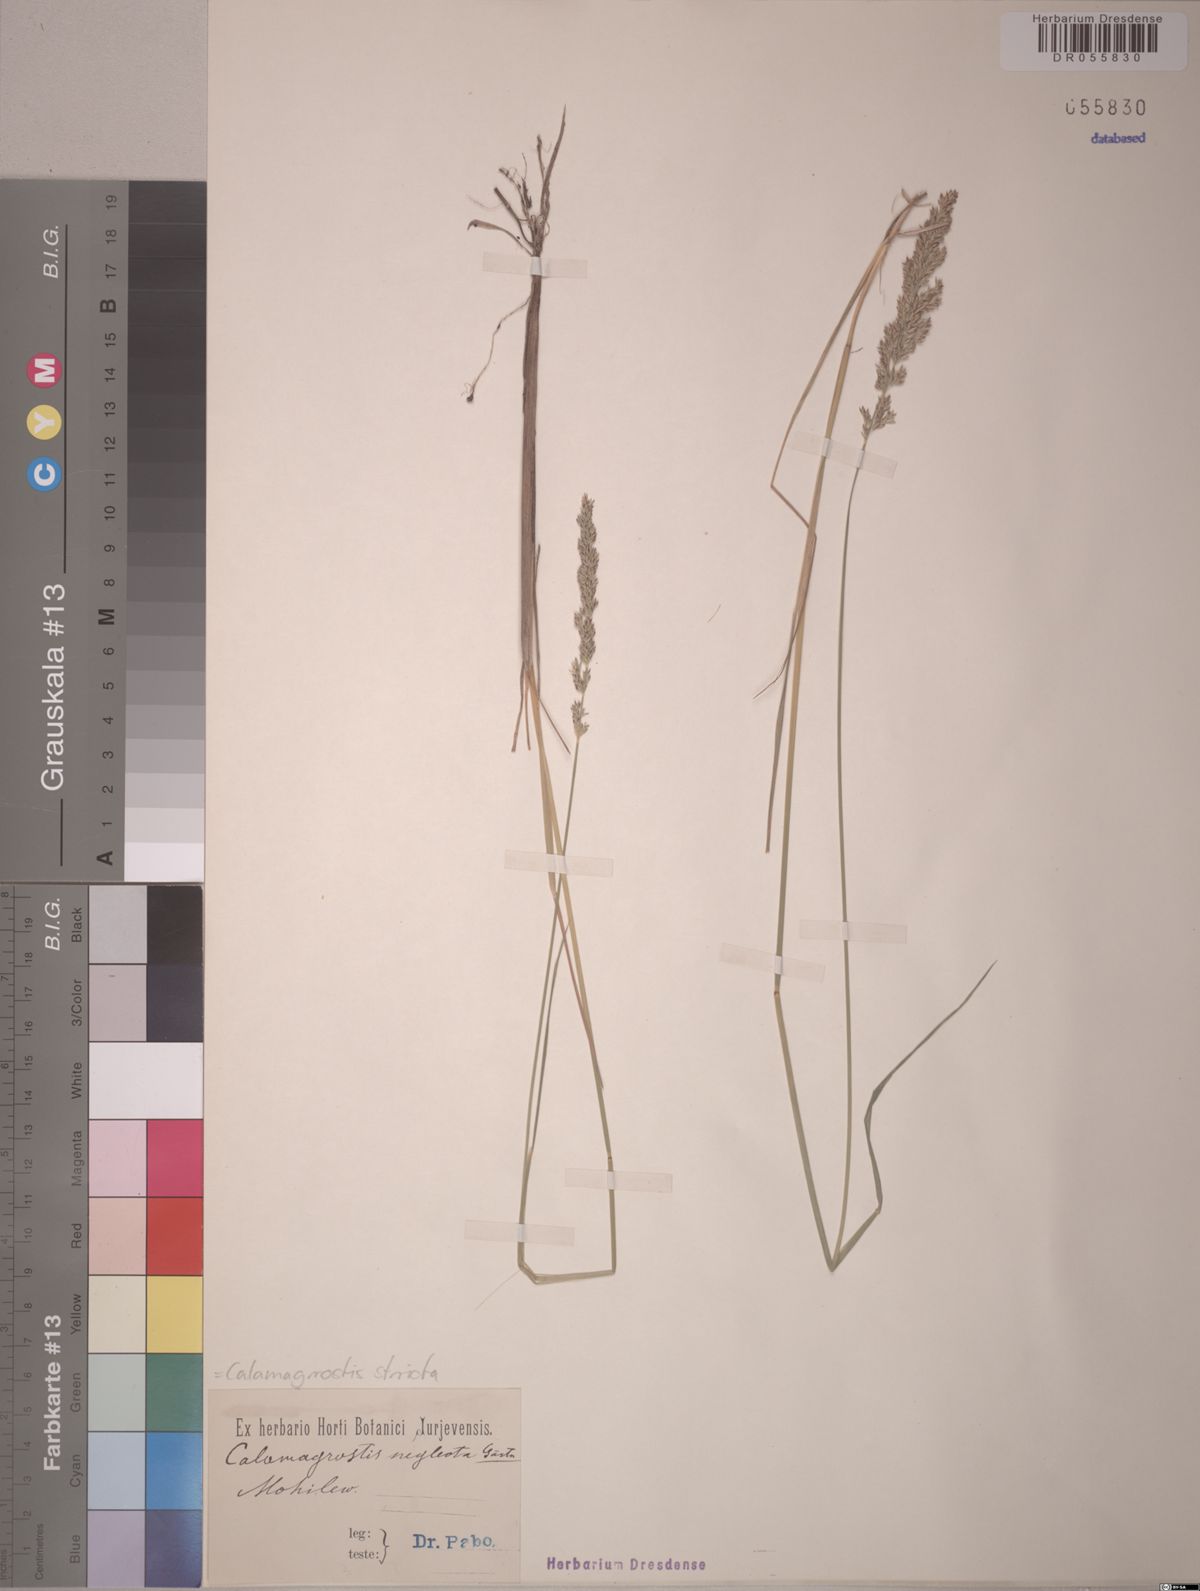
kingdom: Plantae
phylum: Tracheophyta
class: Liliopsida
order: Poales
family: Poaceae
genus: Calamagrostis
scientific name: Calamagrostis stricta
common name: Narrow small-reed
